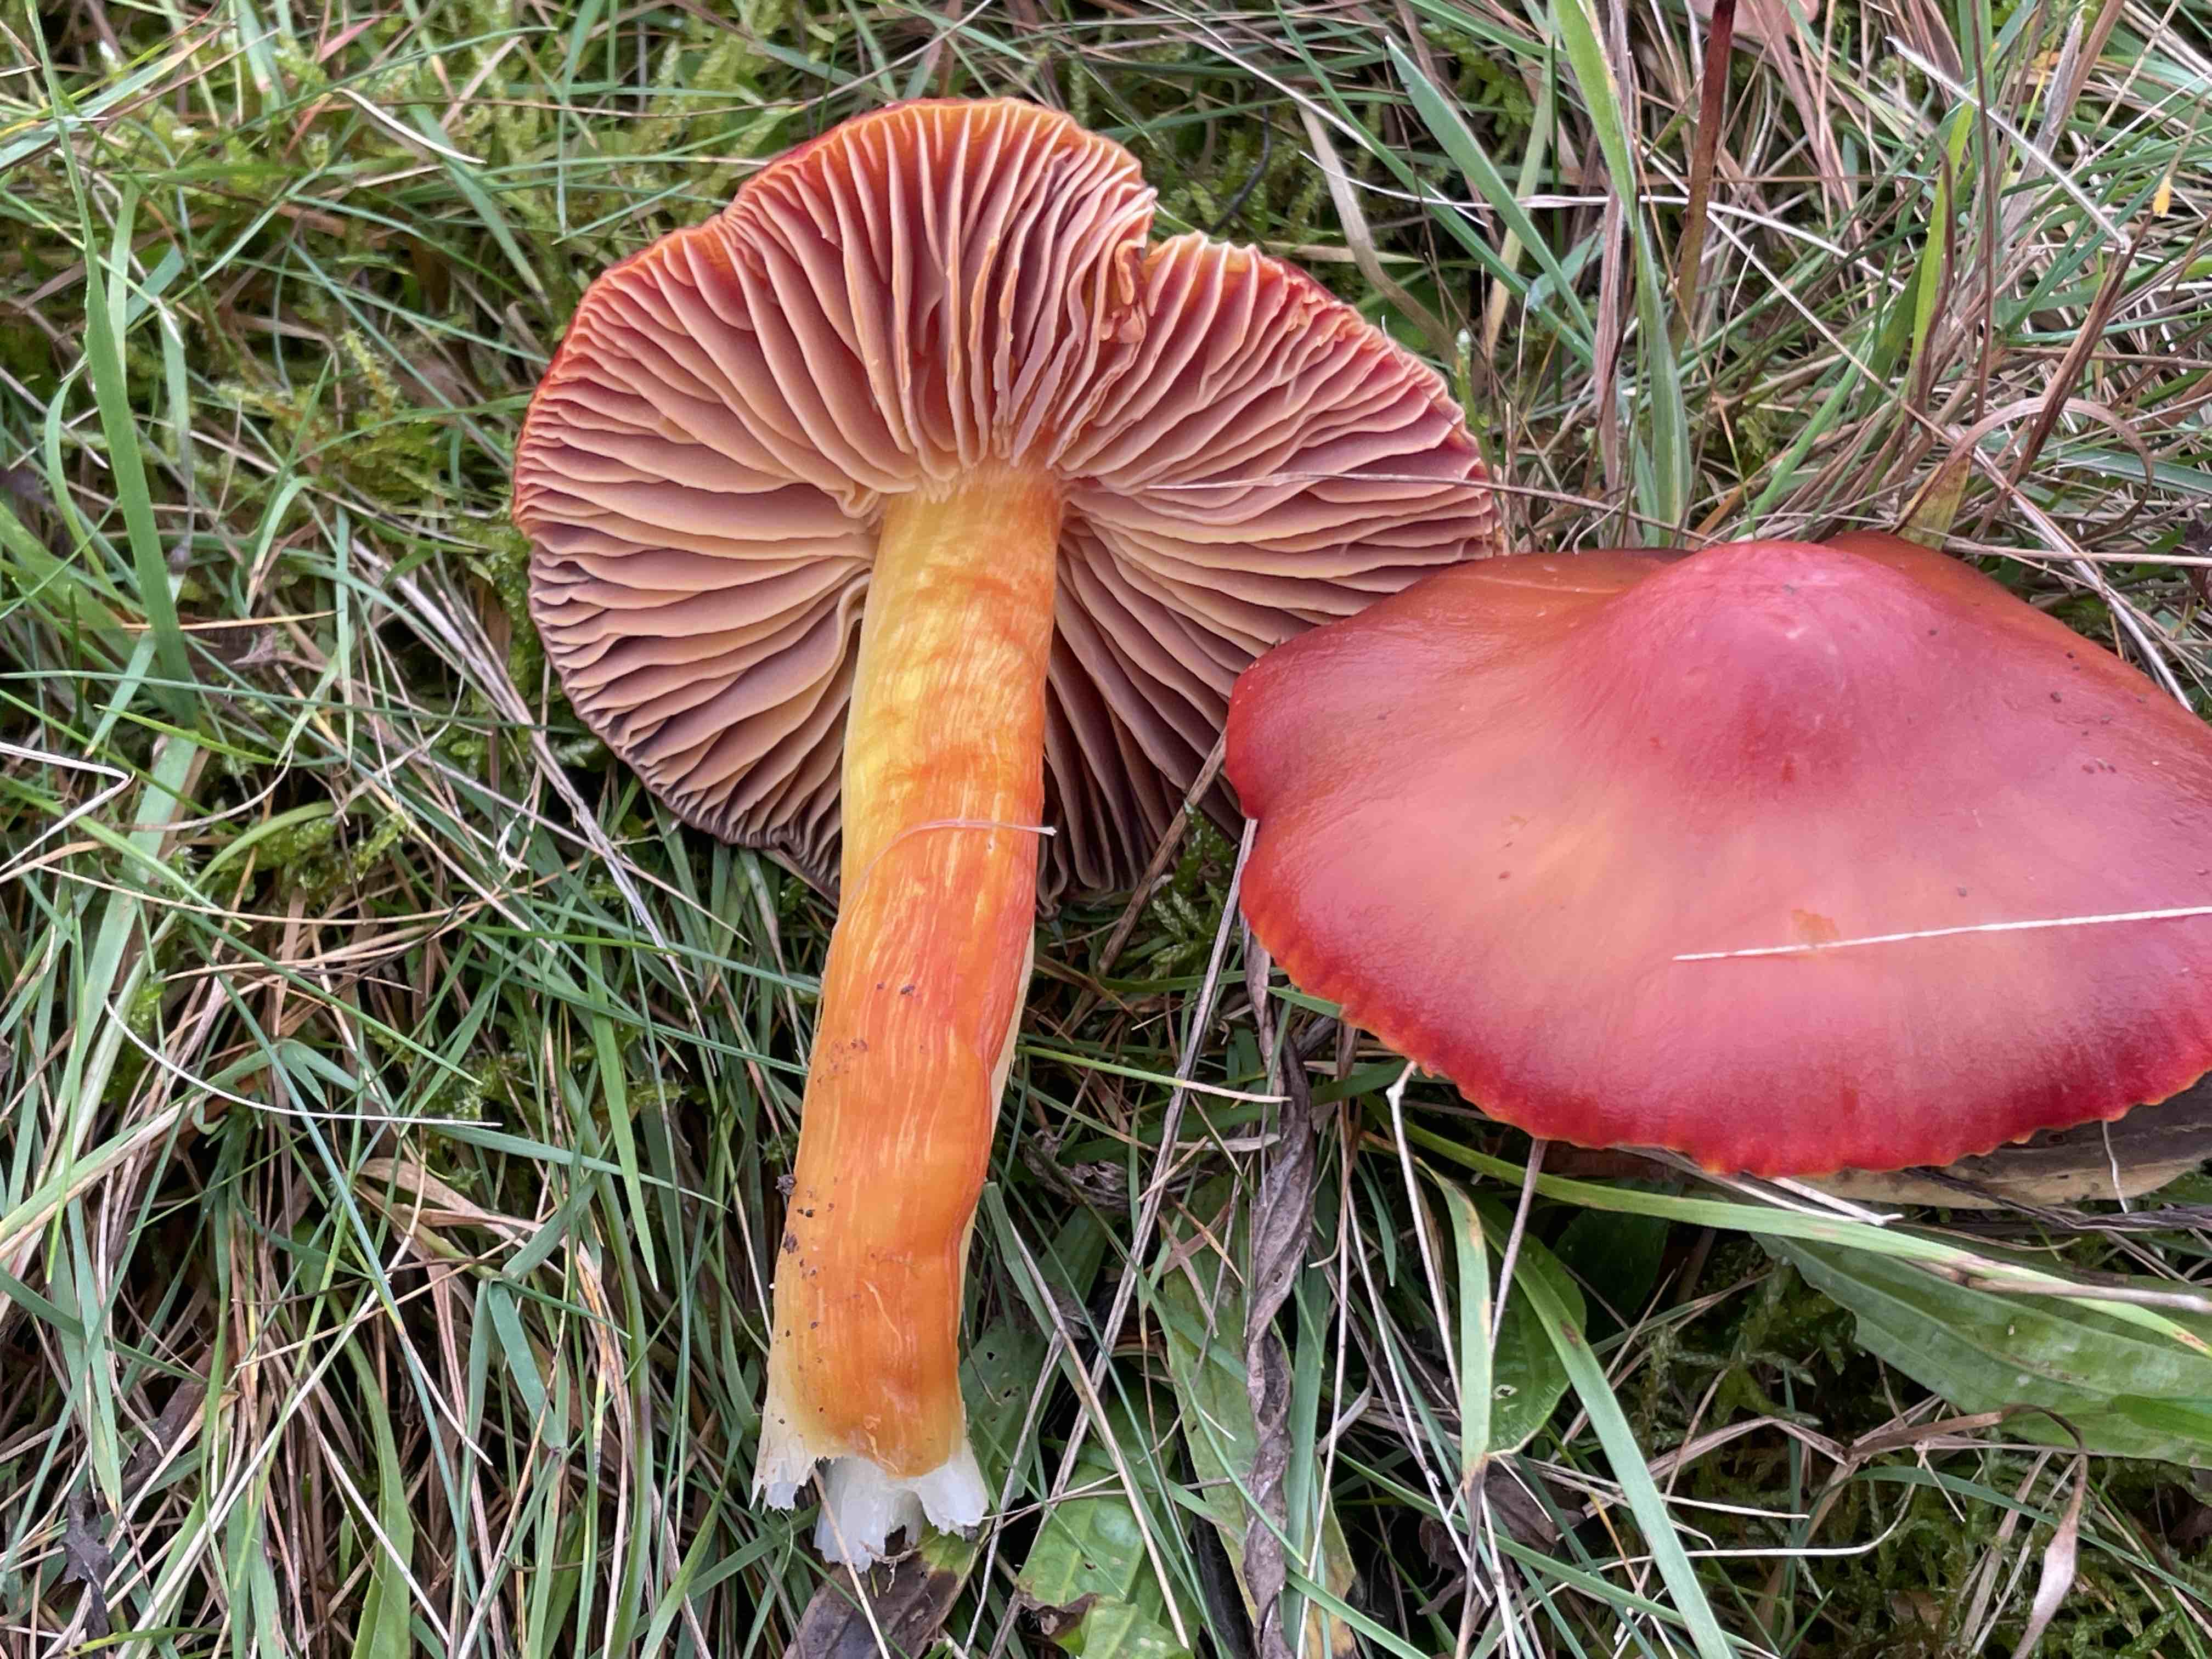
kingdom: Fungi
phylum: Basidiomycota
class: Agaricomycetes
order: Agaricales
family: Hygrophoraceae
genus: Hygrocybe
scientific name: Hygrocybe punicea
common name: skarlagen-vokshat
